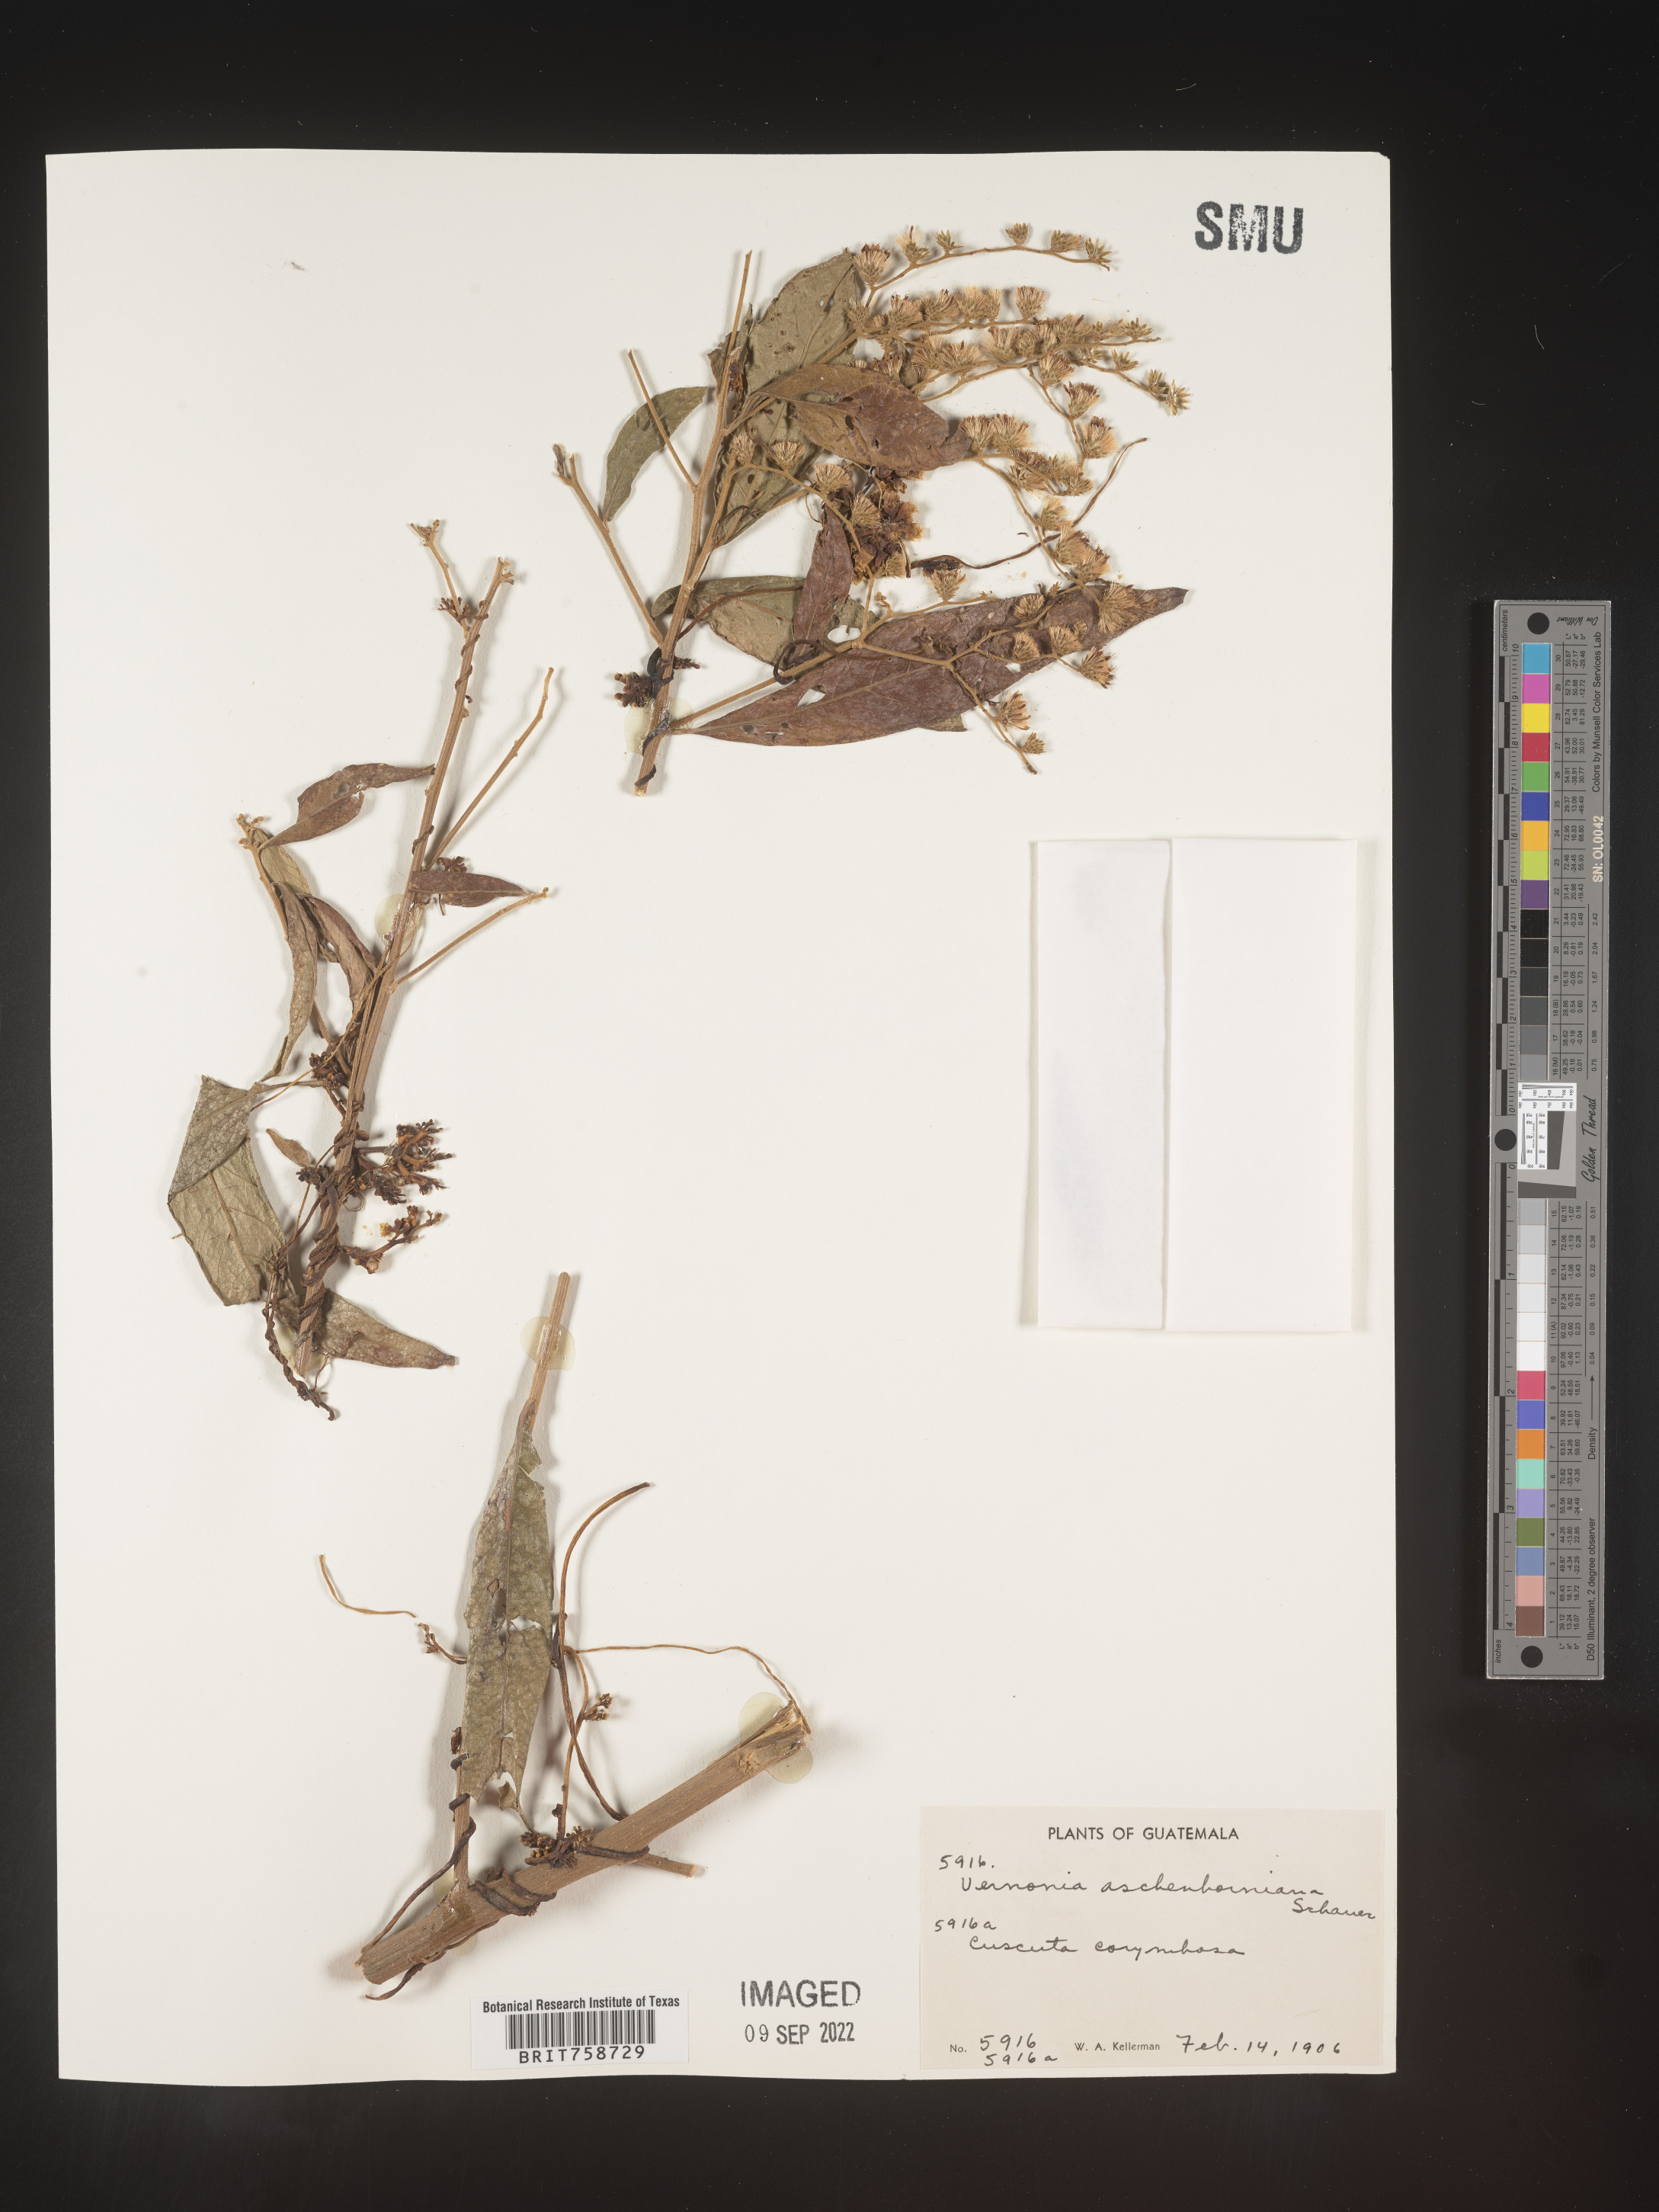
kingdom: Plantae
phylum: Tracheophyta
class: Magnoliopsida
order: Asterales
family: Asteraceae
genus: Vernonia
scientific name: Vernonia
